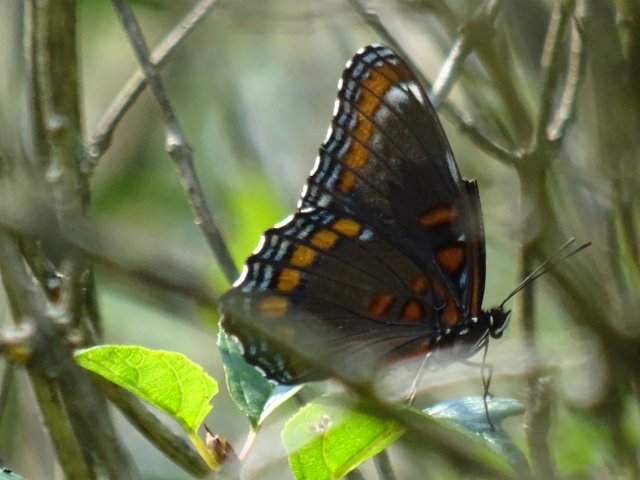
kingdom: Animalia
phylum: Arthropoda
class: Insecta
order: Lepidoptera
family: Nymphalidae
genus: Limenitis
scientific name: Limenitis astyanax
